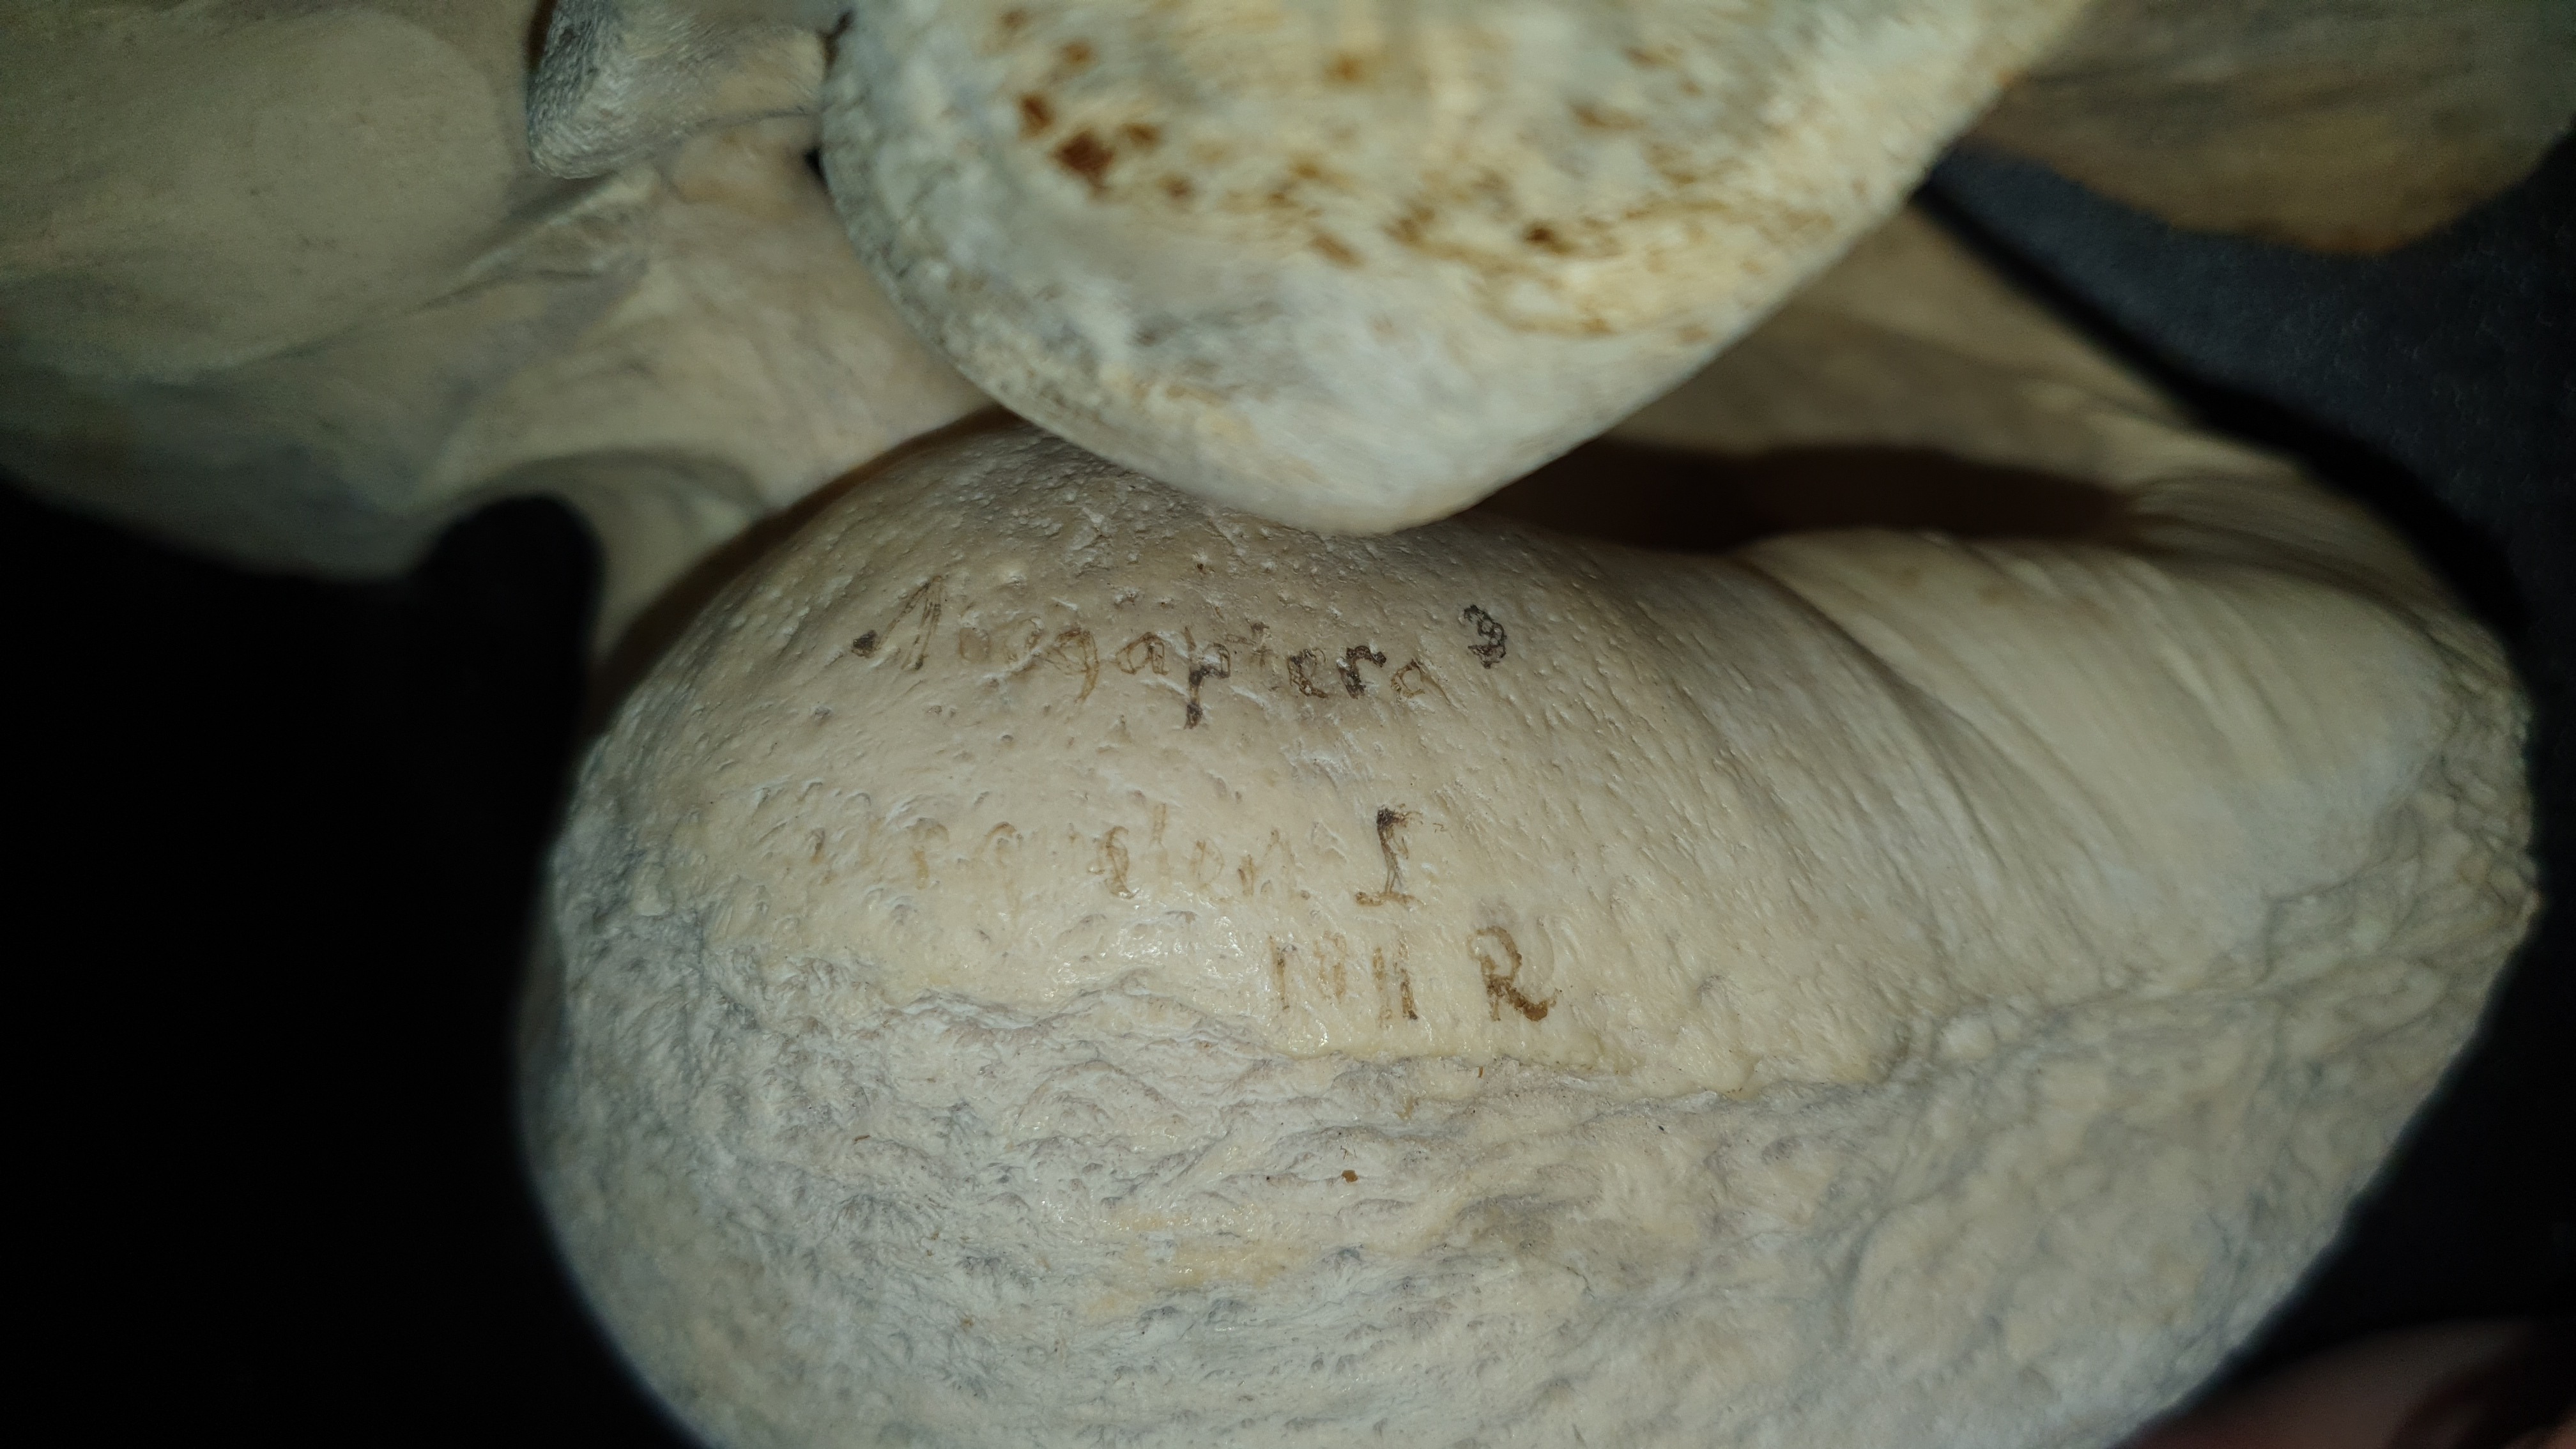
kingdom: Animalia
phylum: Chordata
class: Mammalia
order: Cetacea
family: Balaenopteridae
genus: Megaptera
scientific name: Megaptera novaeangliae
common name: Humpback whale
